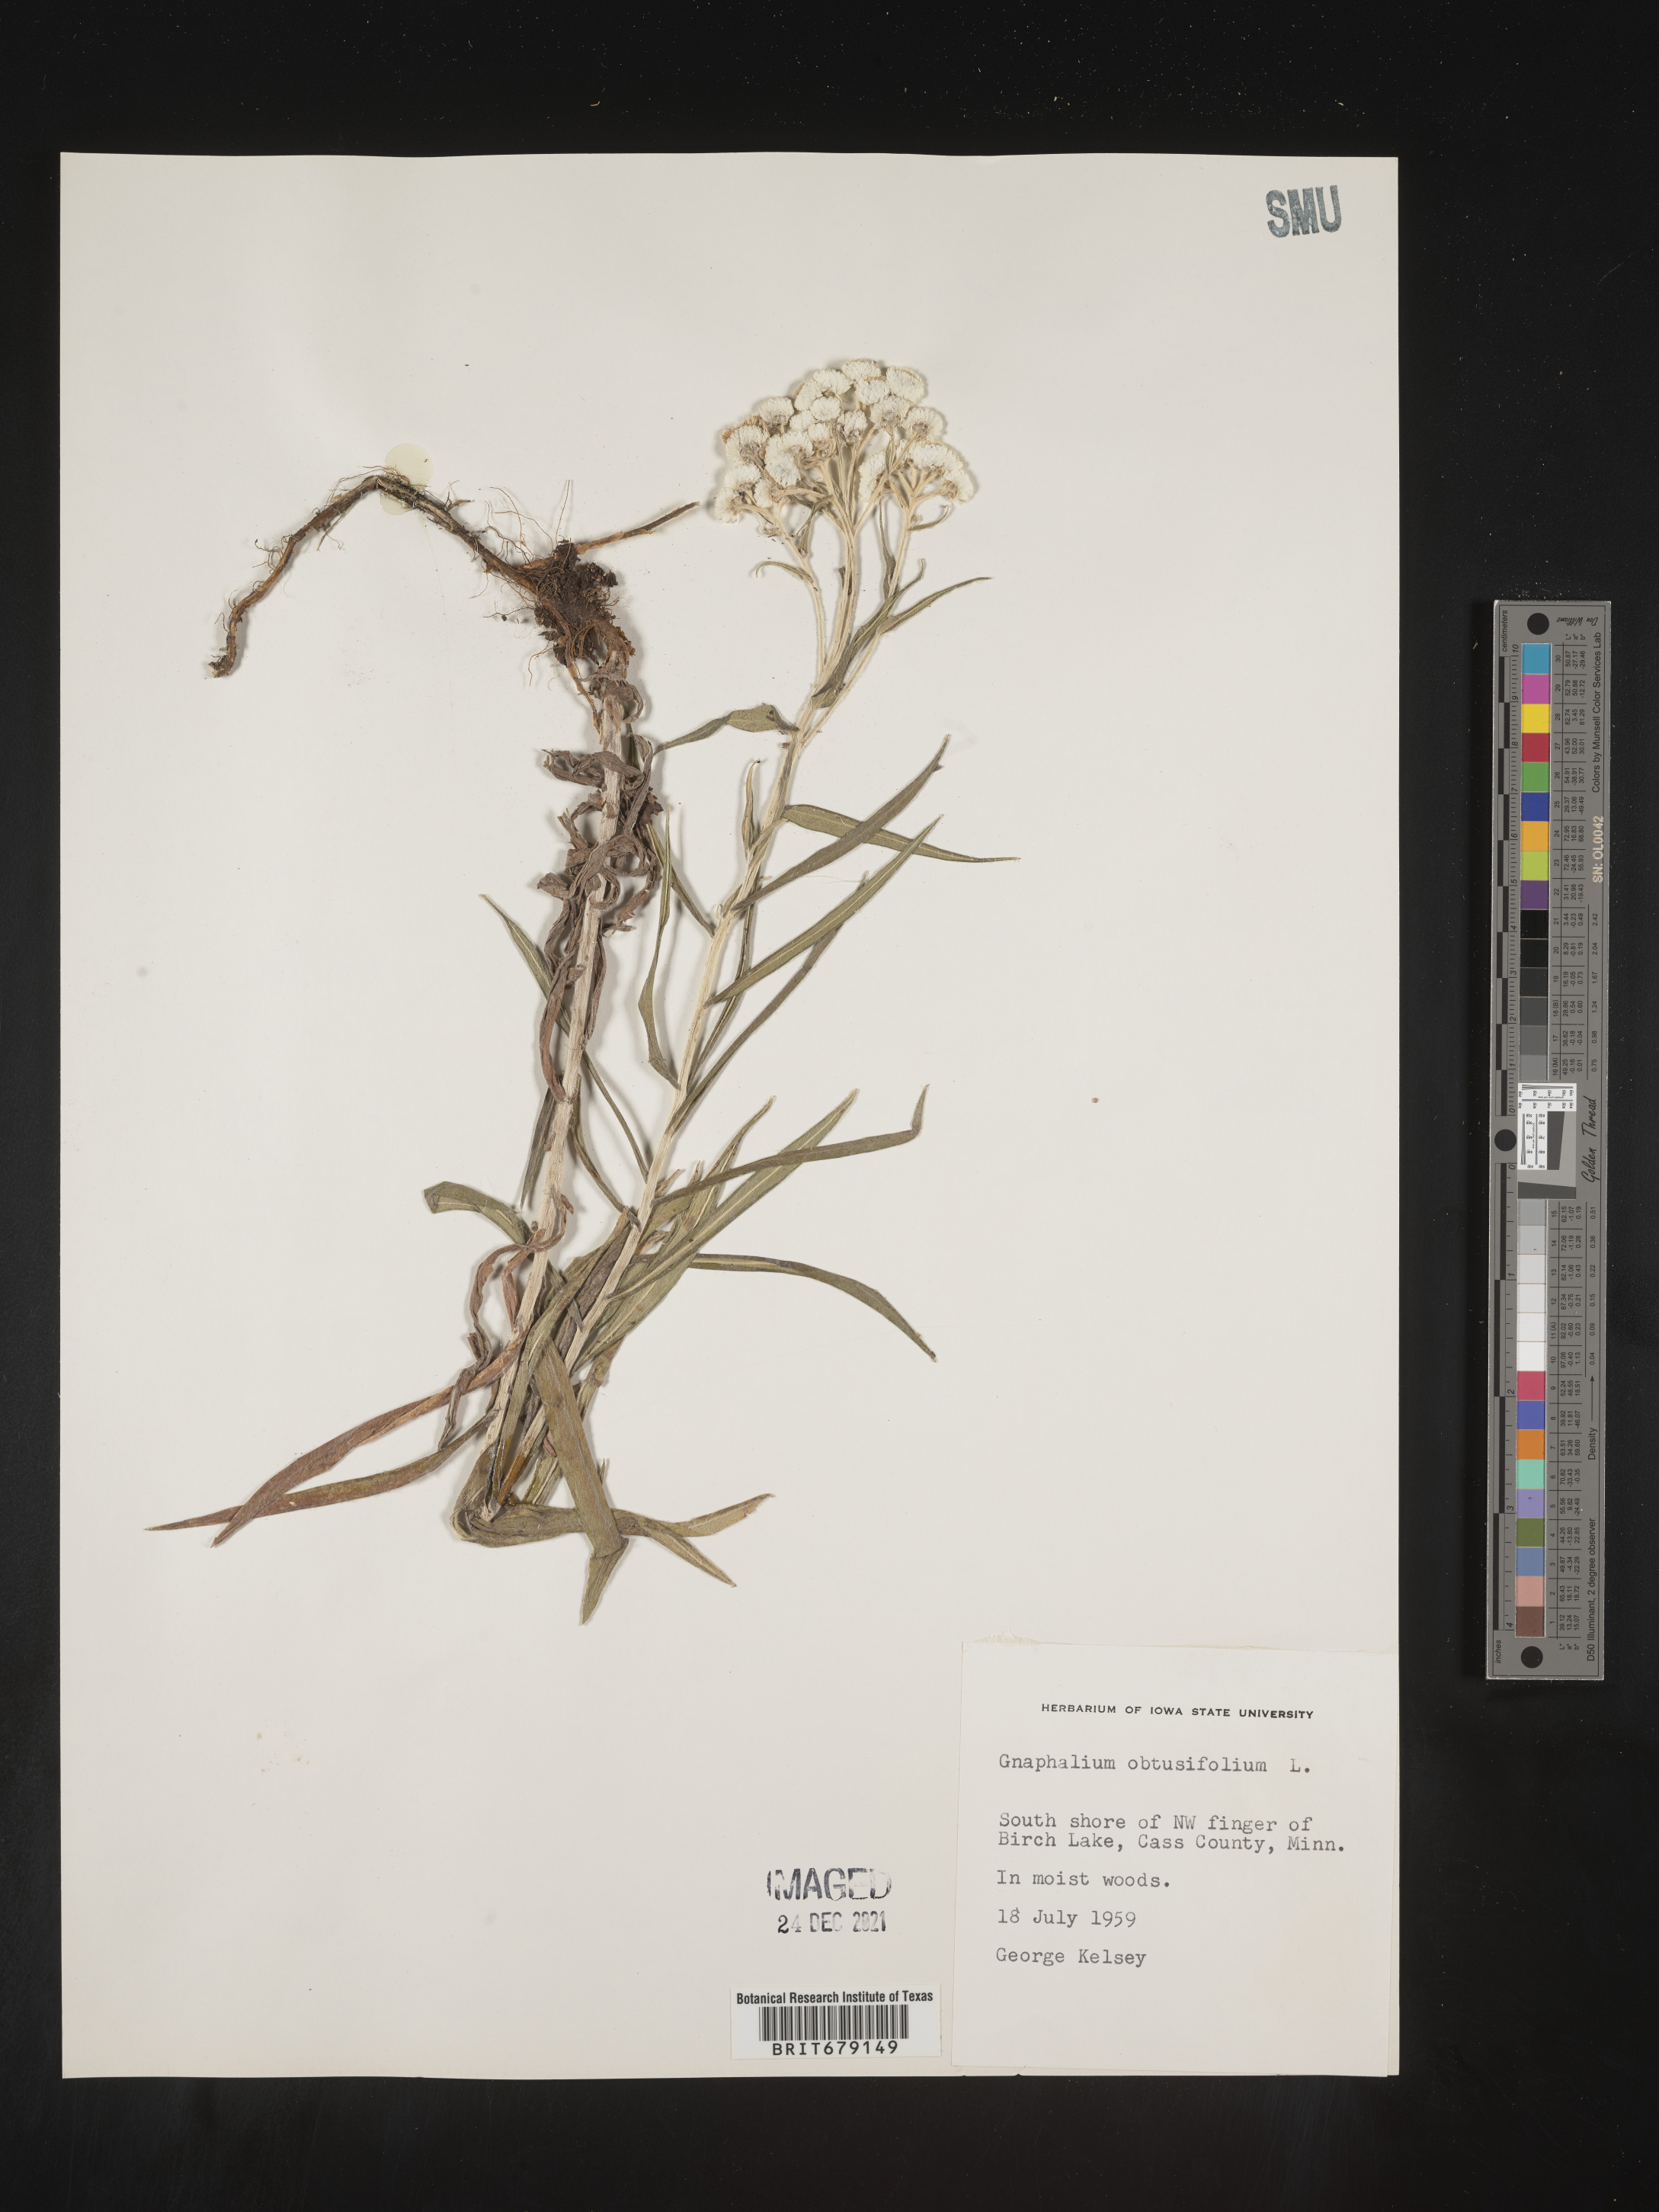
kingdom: Plantae
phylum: Tracheophyta
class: Magnoliopsida
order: Asterales
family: Asteraceae
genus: Anaphalis
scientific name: Anaphalis margaritacea
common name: Pearly everlasting
